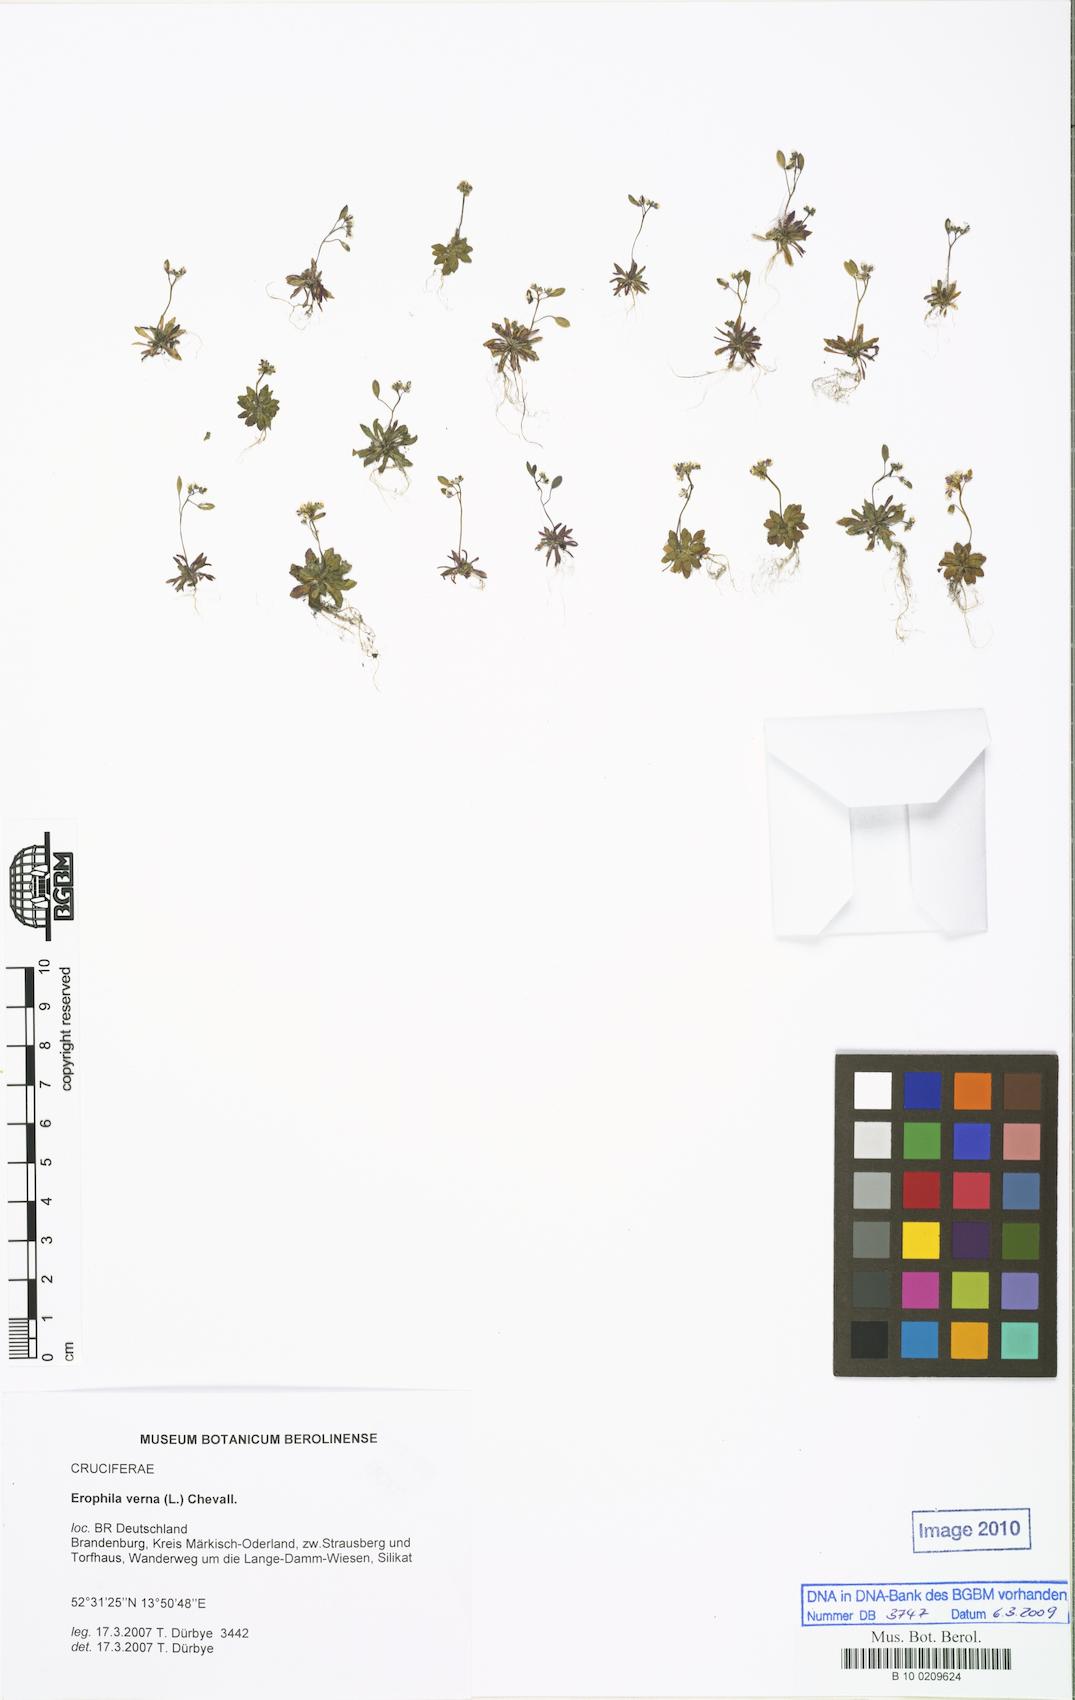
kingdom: Plantae
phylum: Tracheophyta
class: Magnoliopsida
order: Brassicales
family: Brassicaceae
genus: Draba
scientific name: Draba verna
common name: Spring draba
